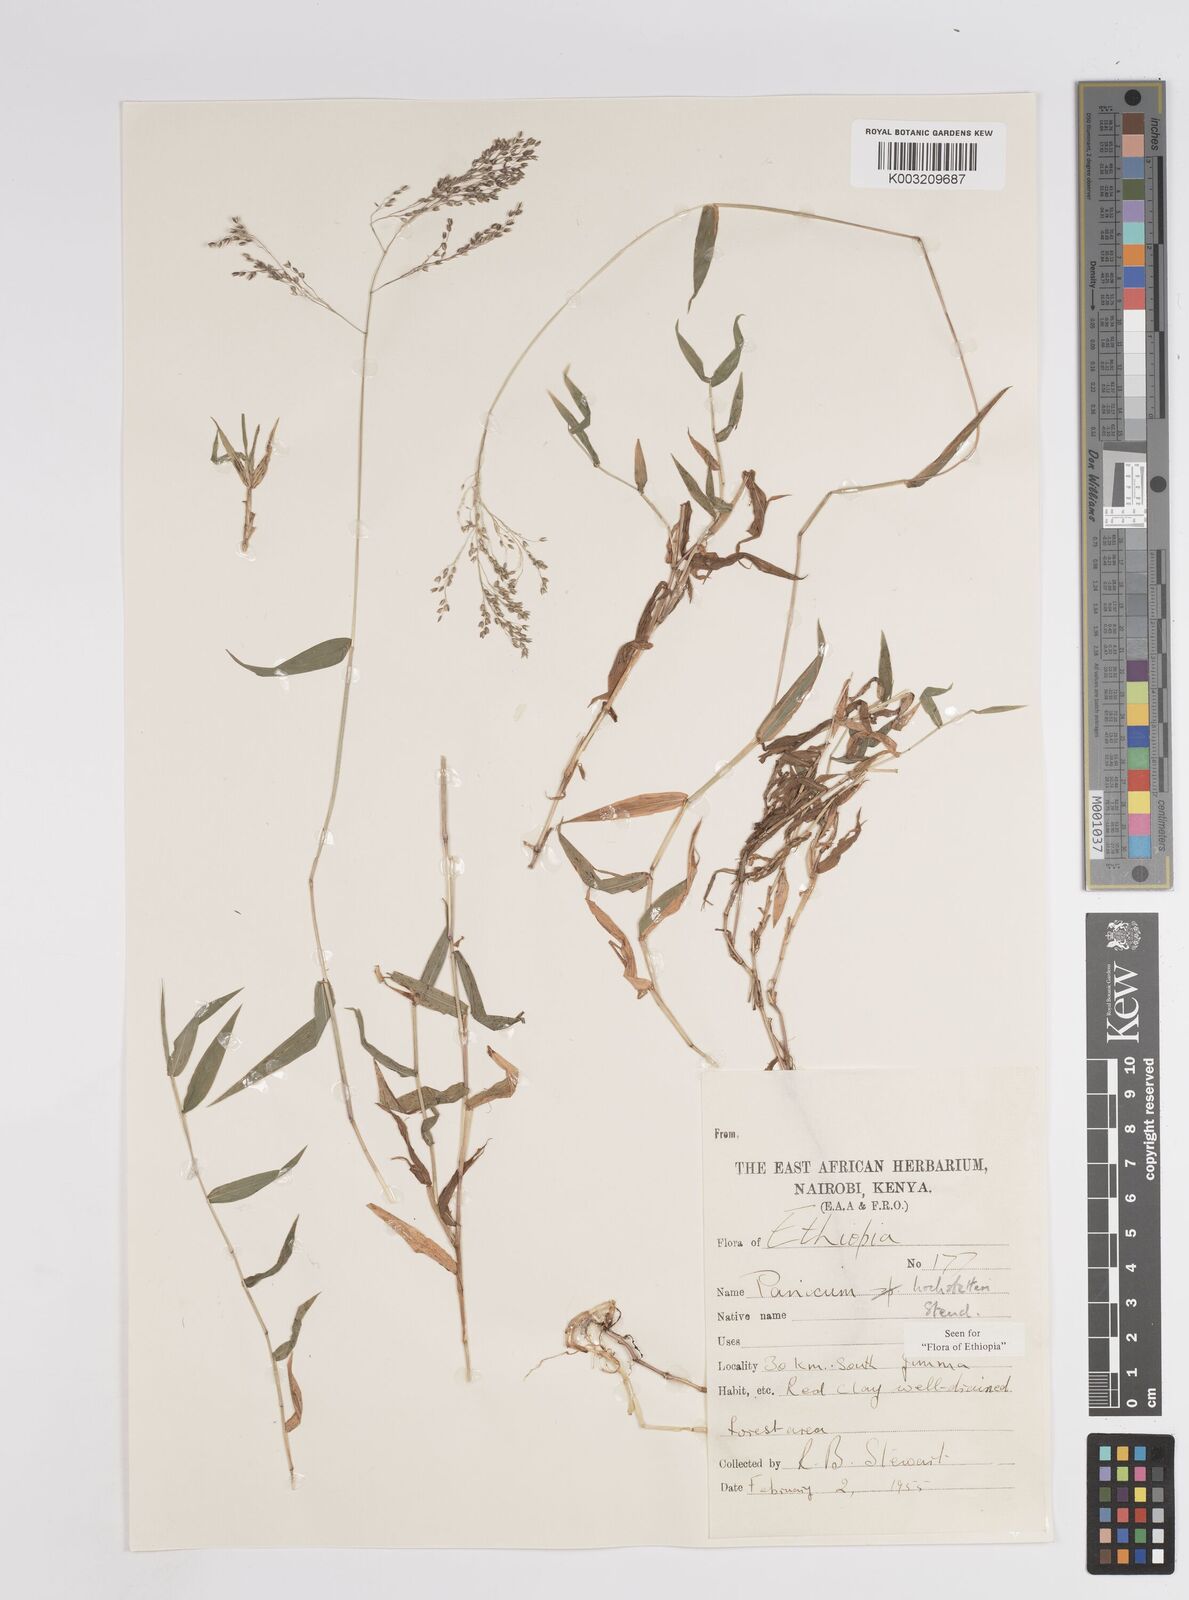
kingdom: Plantae
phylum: Tracheophyta
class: Liliopsida
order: Poales
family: Poaceae
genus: Panicum
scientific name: Panicum hochstetteri
